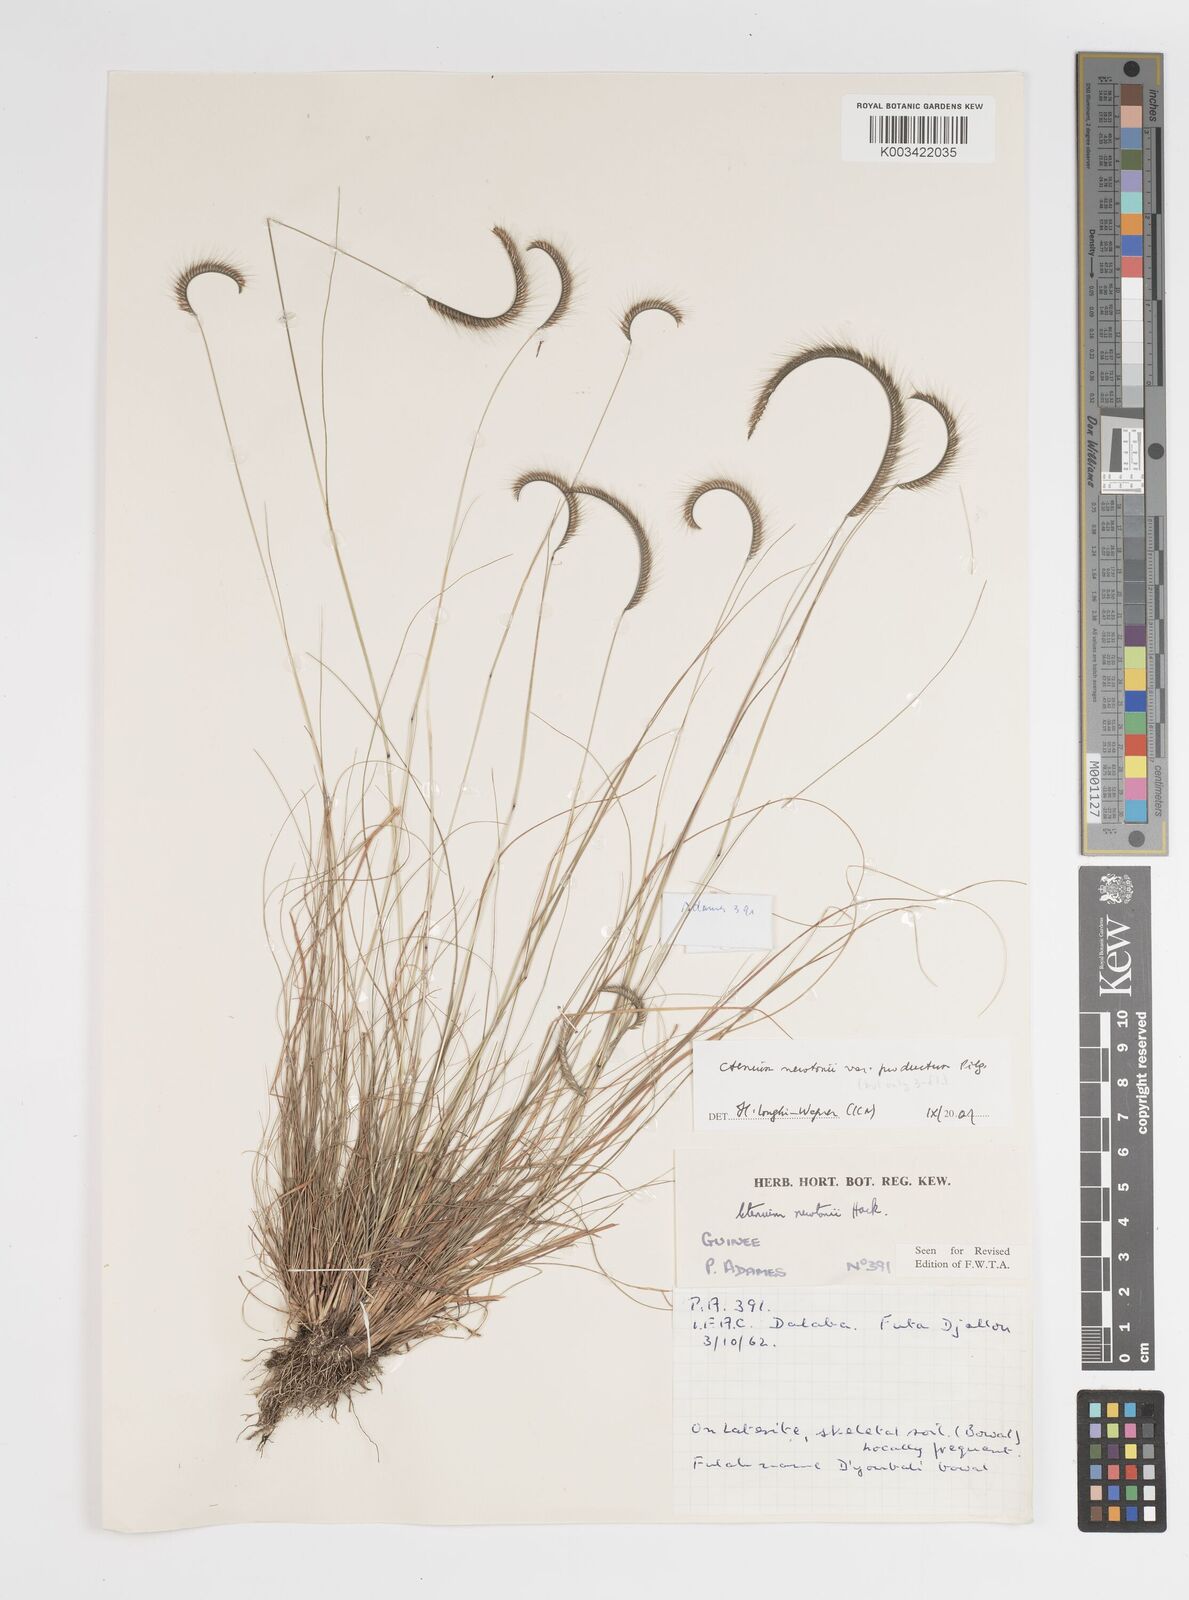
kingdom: Plantae
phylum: Tracheophyta
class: Liliopsida
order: Poales
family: Poaceae
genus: Ctenium
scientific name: Ctenium newtonii
